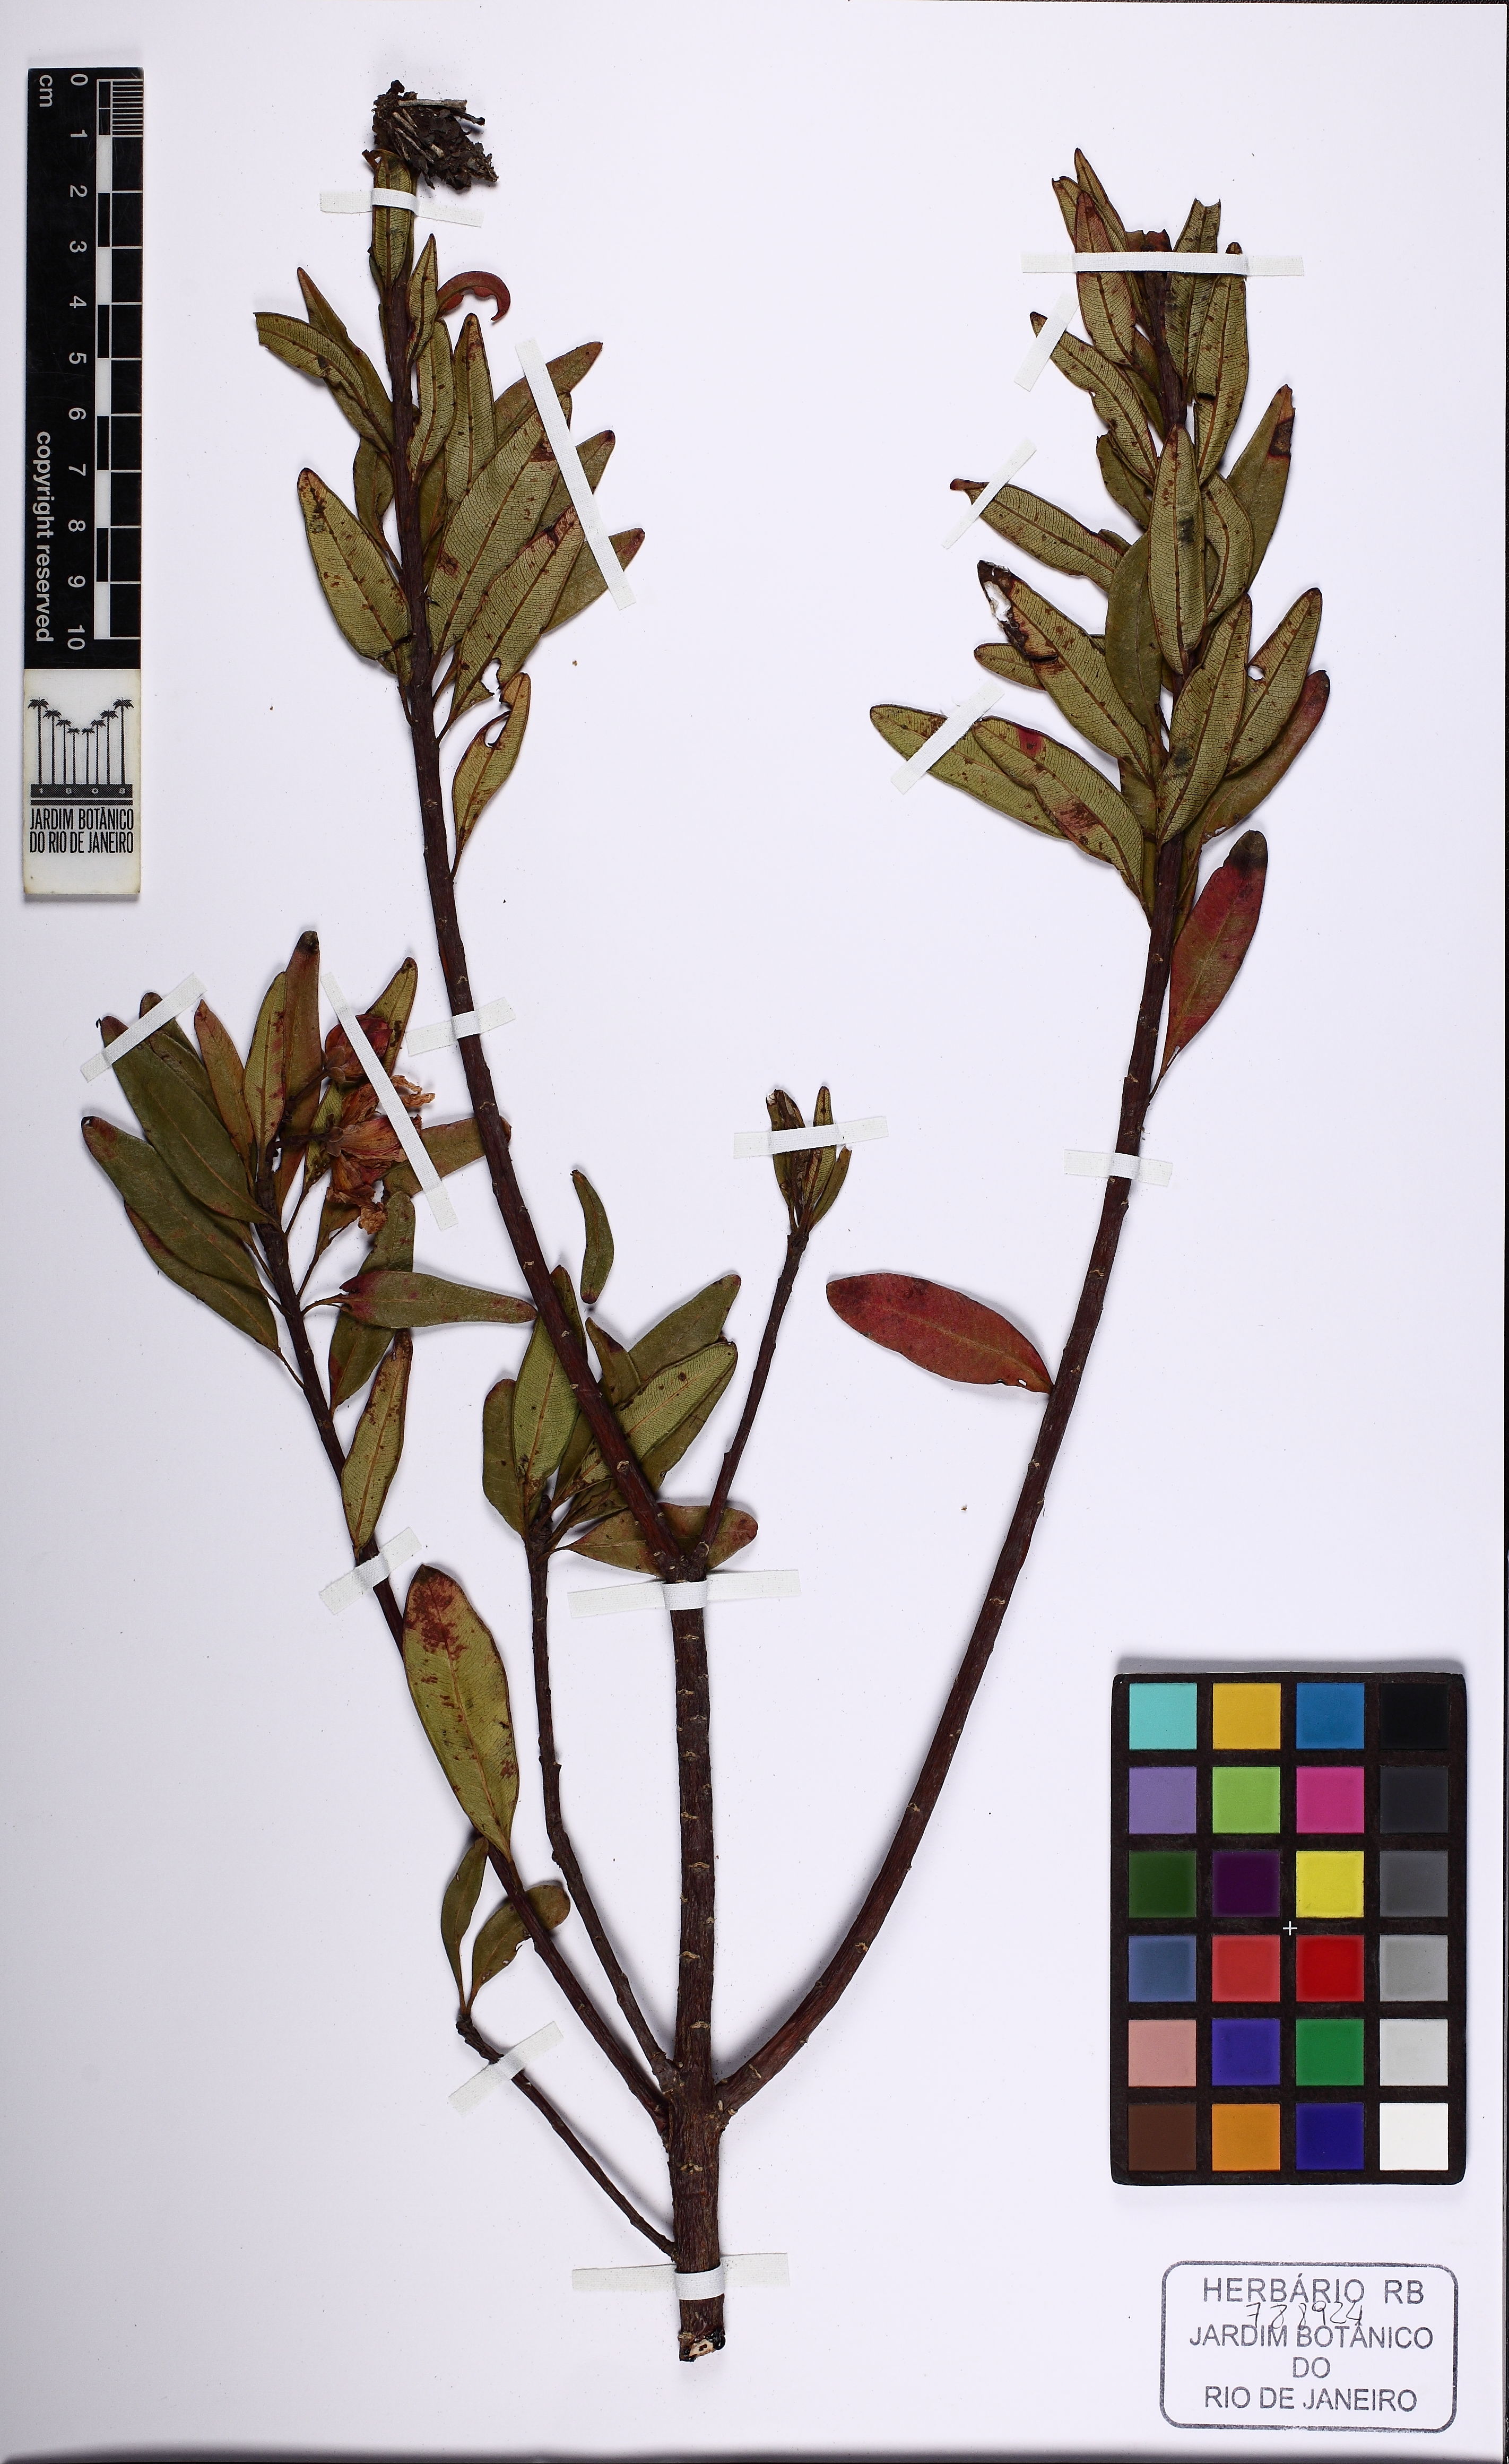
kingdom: Plantae
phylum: Tracheophyta
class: Magnoliopsida
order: Malpighiales
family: Calophyllaceae
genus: Kielmeyera
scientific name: Kielmeyera rubriflora
